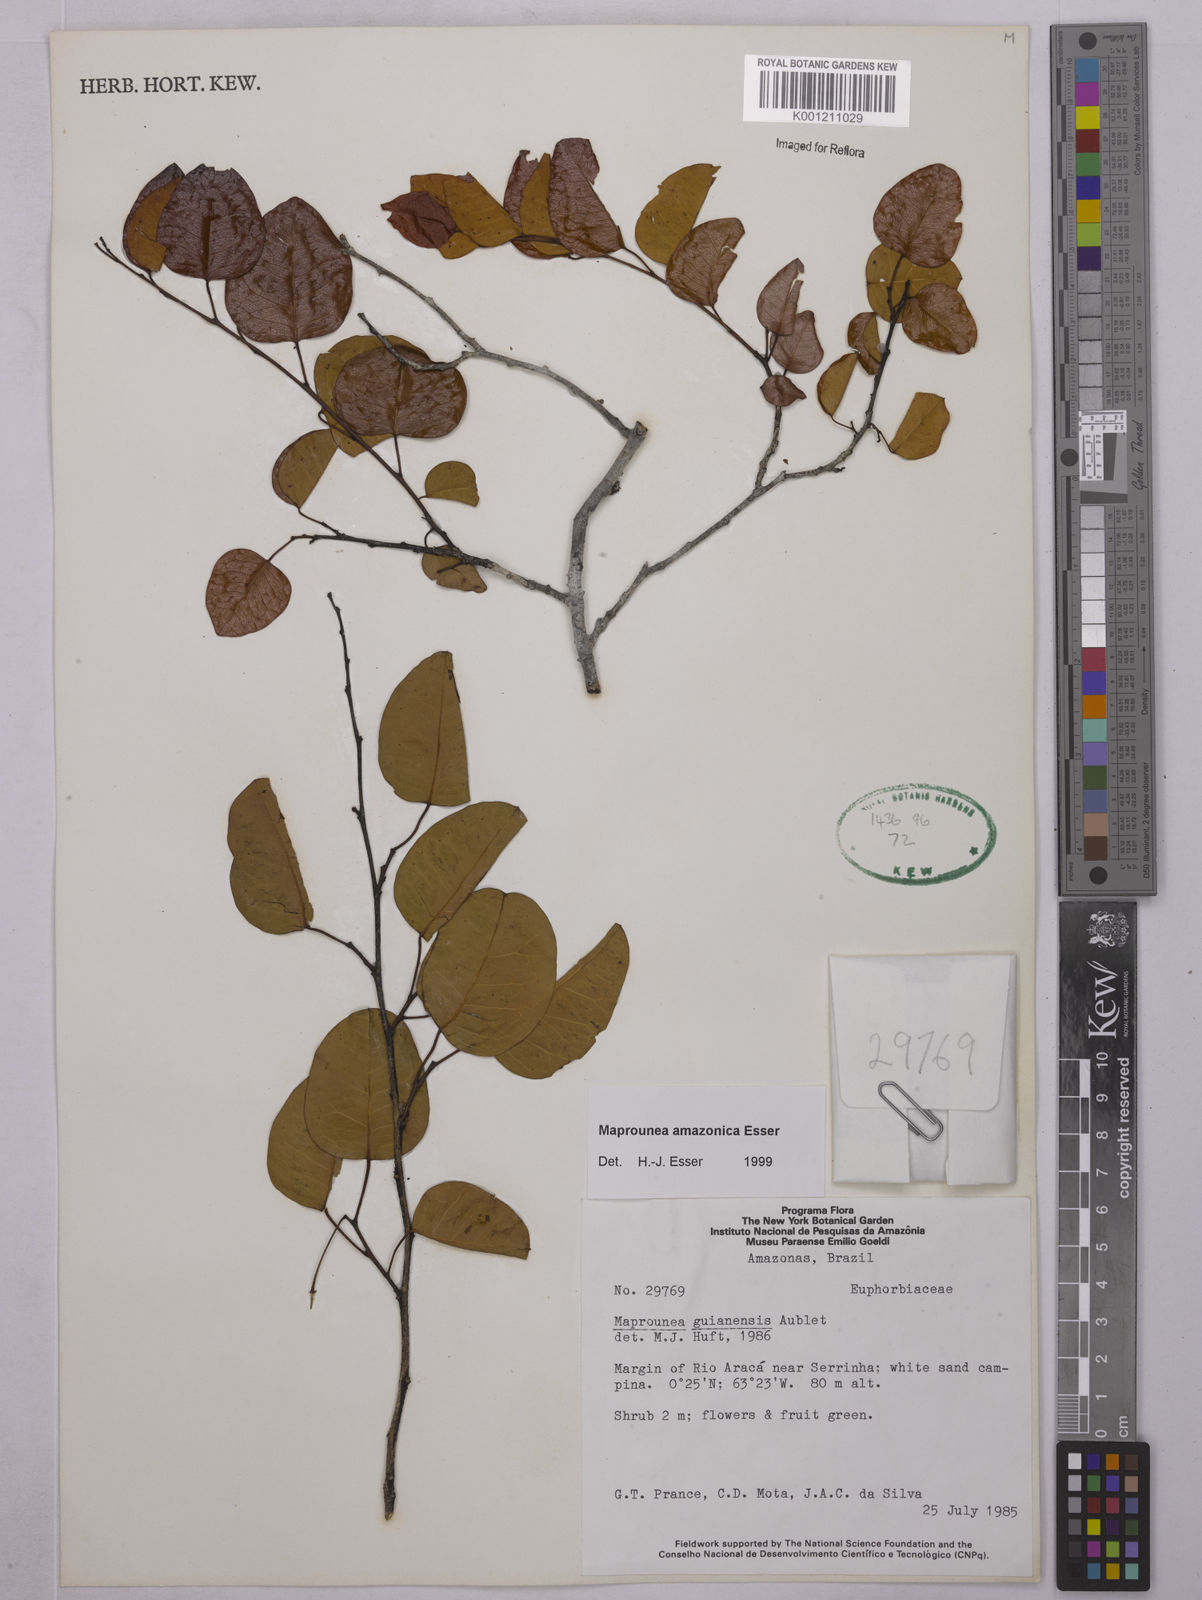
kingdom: Plantae
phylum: Tracheophyta
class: Magnoliopsida
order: Malpighiales
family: Euphorbiaceae
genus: Maprounea
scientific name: Maprounea amazonica
